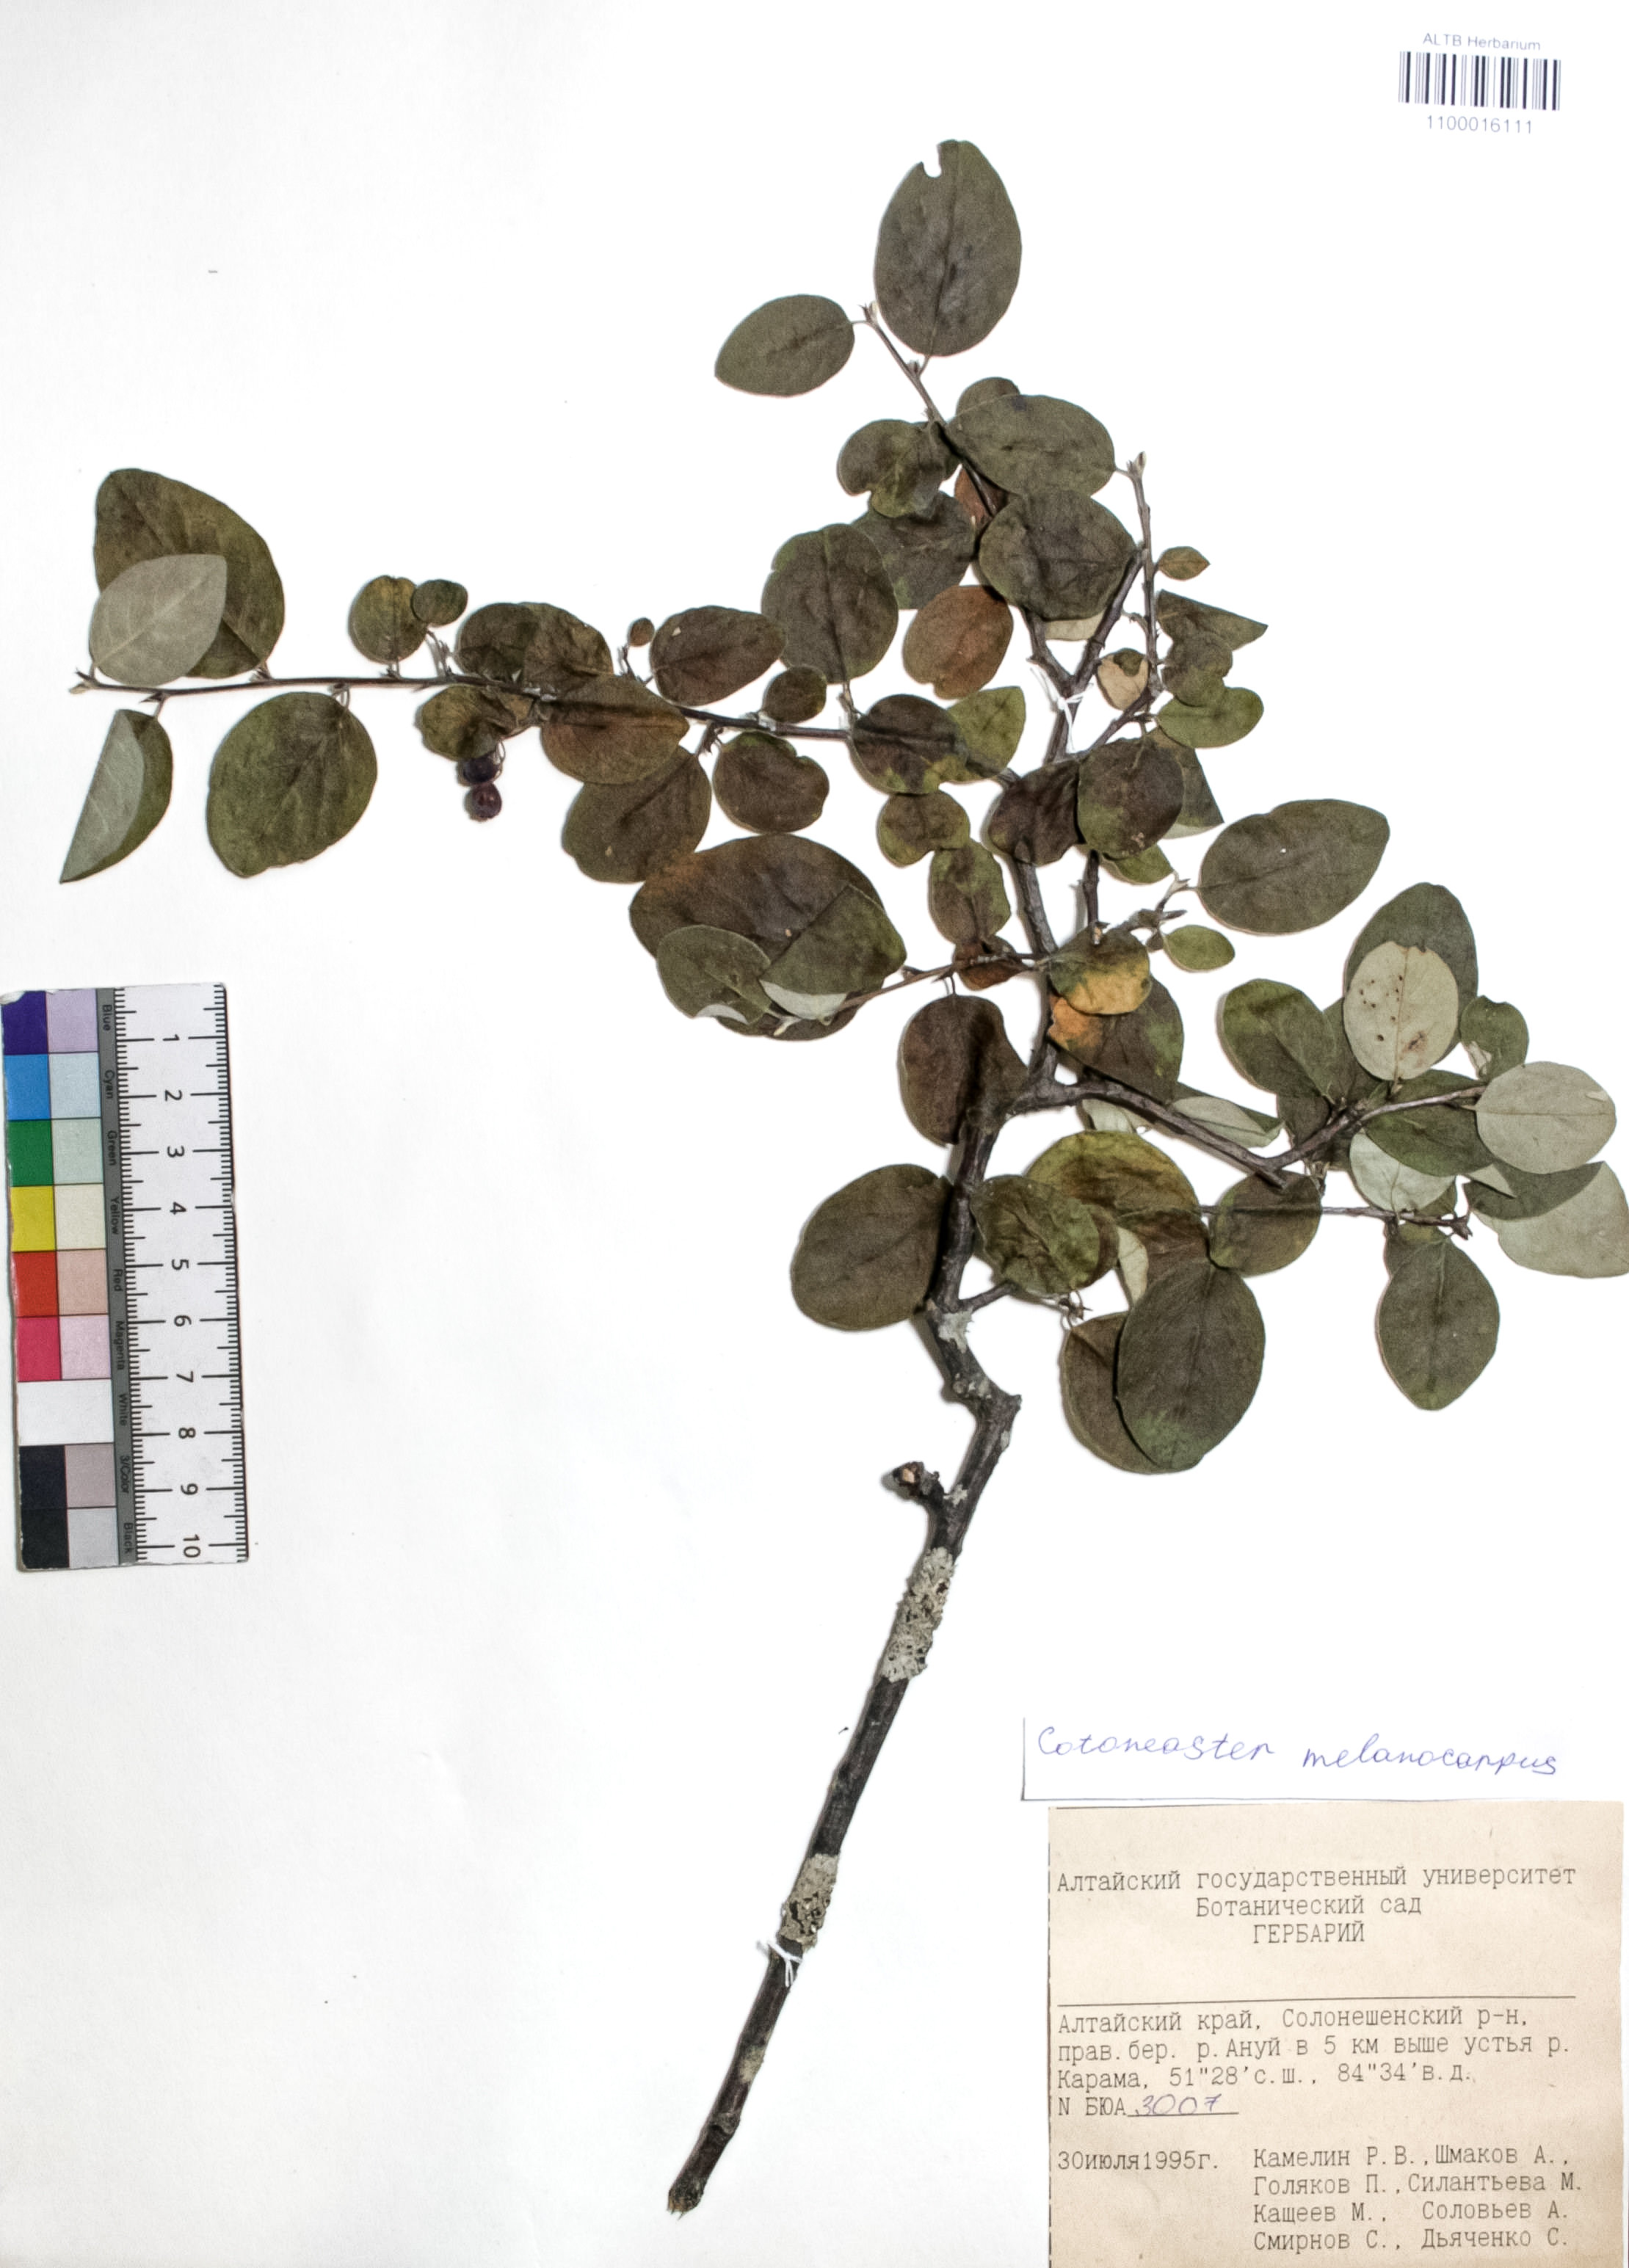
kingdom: Plantae
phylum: Tracheophyta
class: Magnoliopsida
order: Rosales
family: Rosaceae
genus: Cotoneaster
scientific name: Cotoneaster niger
